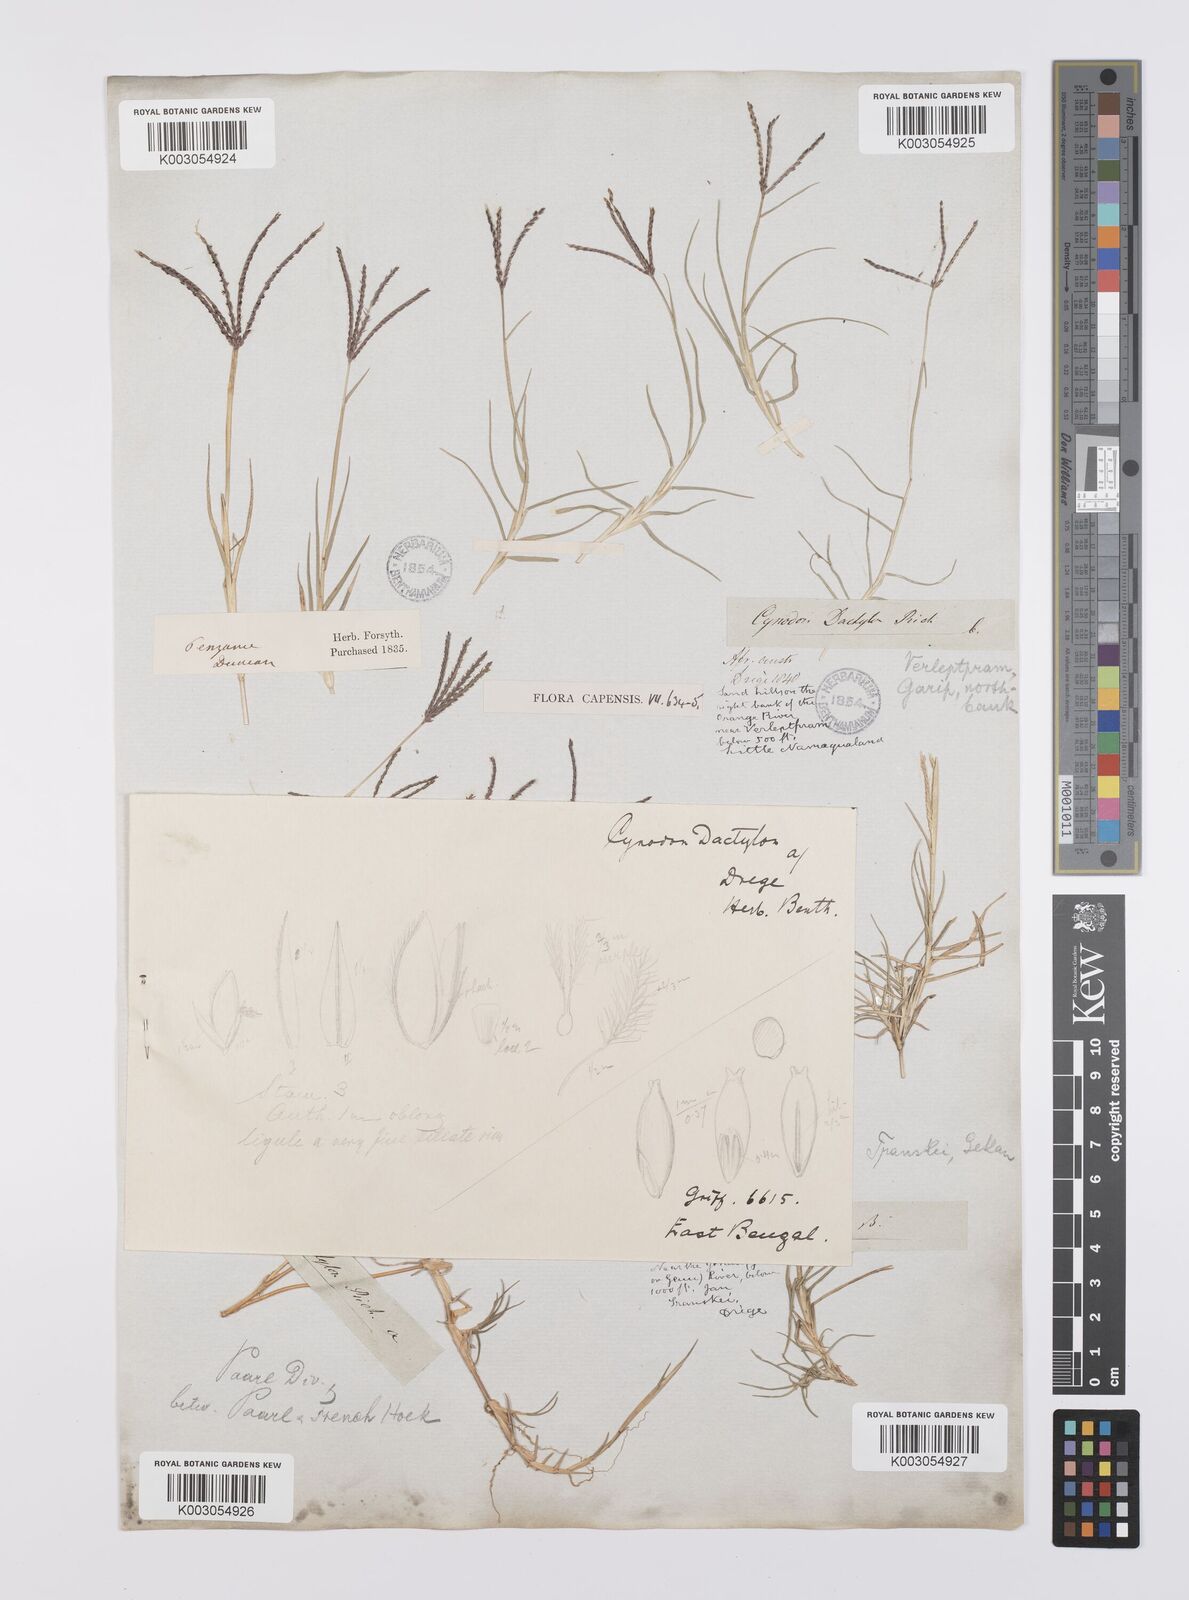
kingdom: Plantae
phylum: Tracheophyta
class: Liliopsida
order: Poales
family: Poaceae
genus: Cynodon
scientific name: Cynodon dactylon
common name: Bermuda grass
